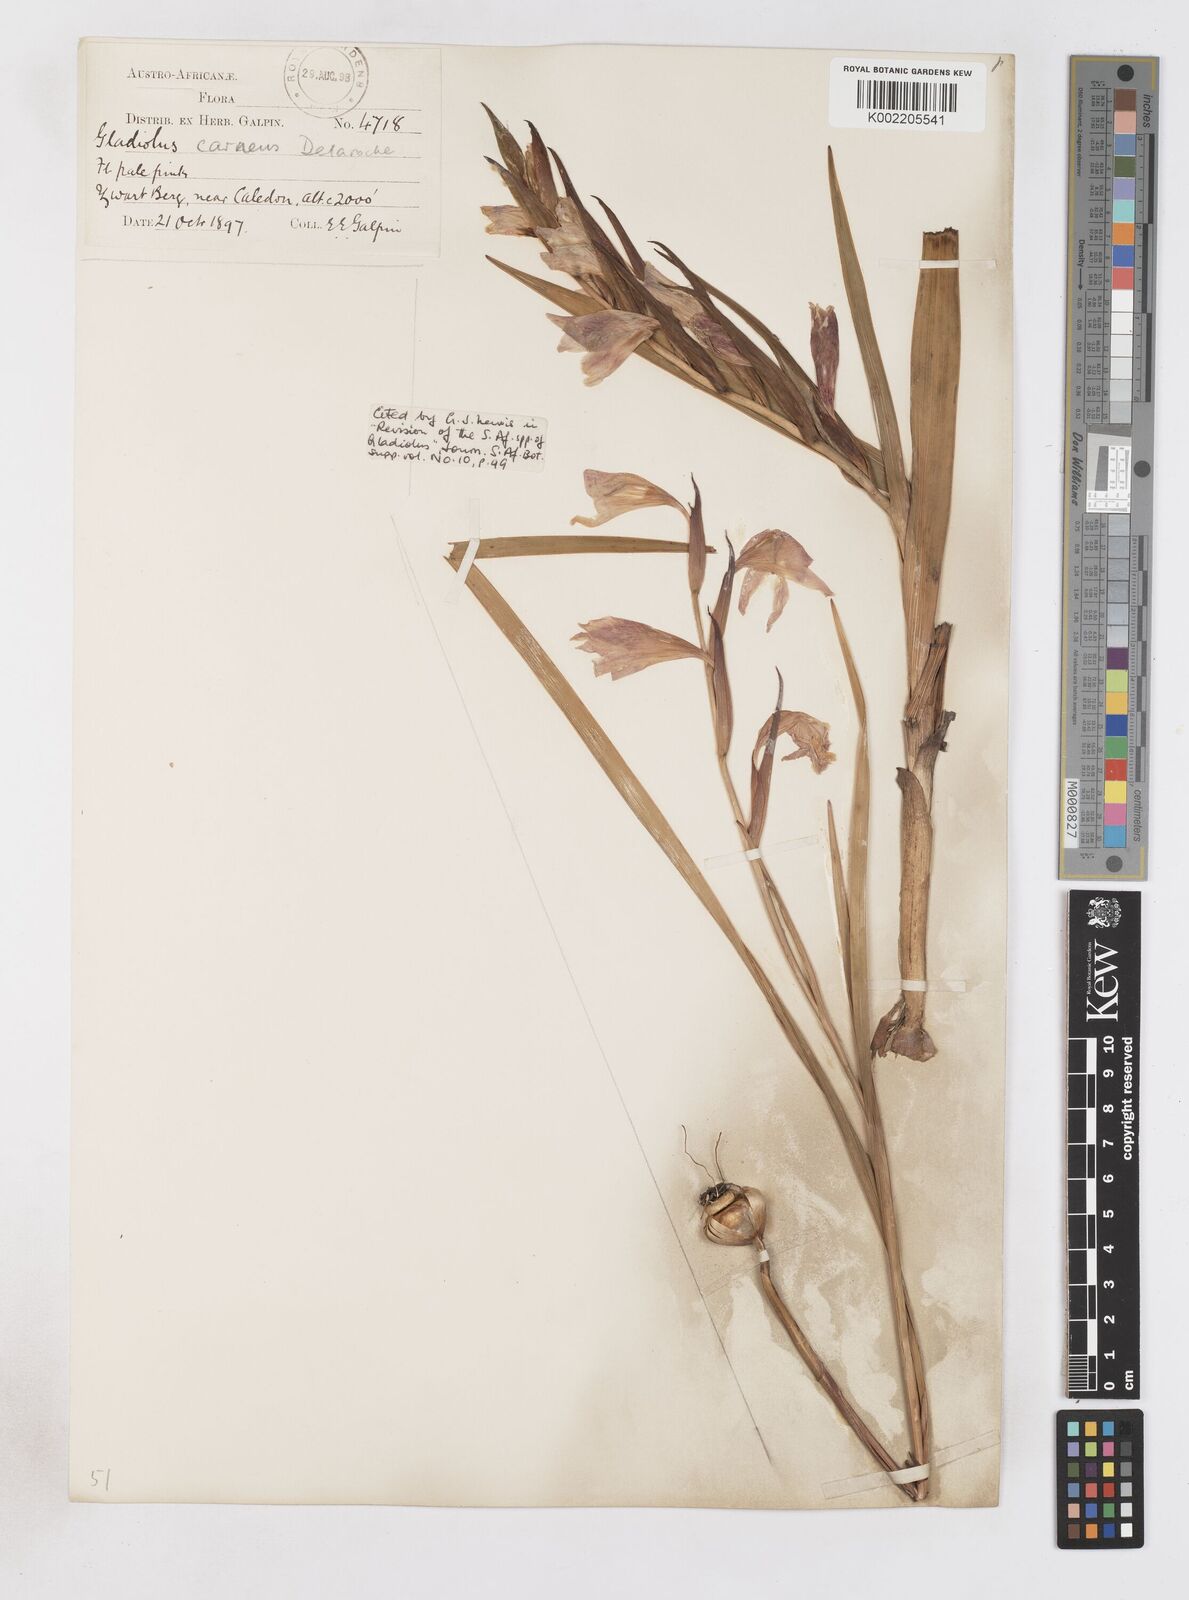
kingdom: Plantae
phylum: Tracheophyta
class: Liliopsida
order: Asparagales
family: Iridaceae
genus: Gladiolus
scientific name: Gladiolus carneus
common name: Painted-lady
